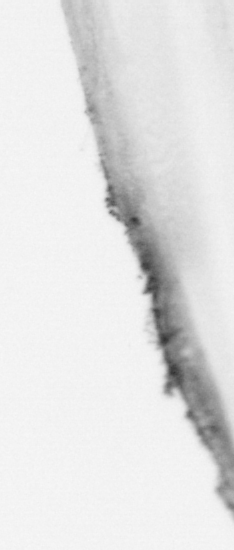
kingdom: Animalia
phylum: Chordata
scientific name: Chordata
